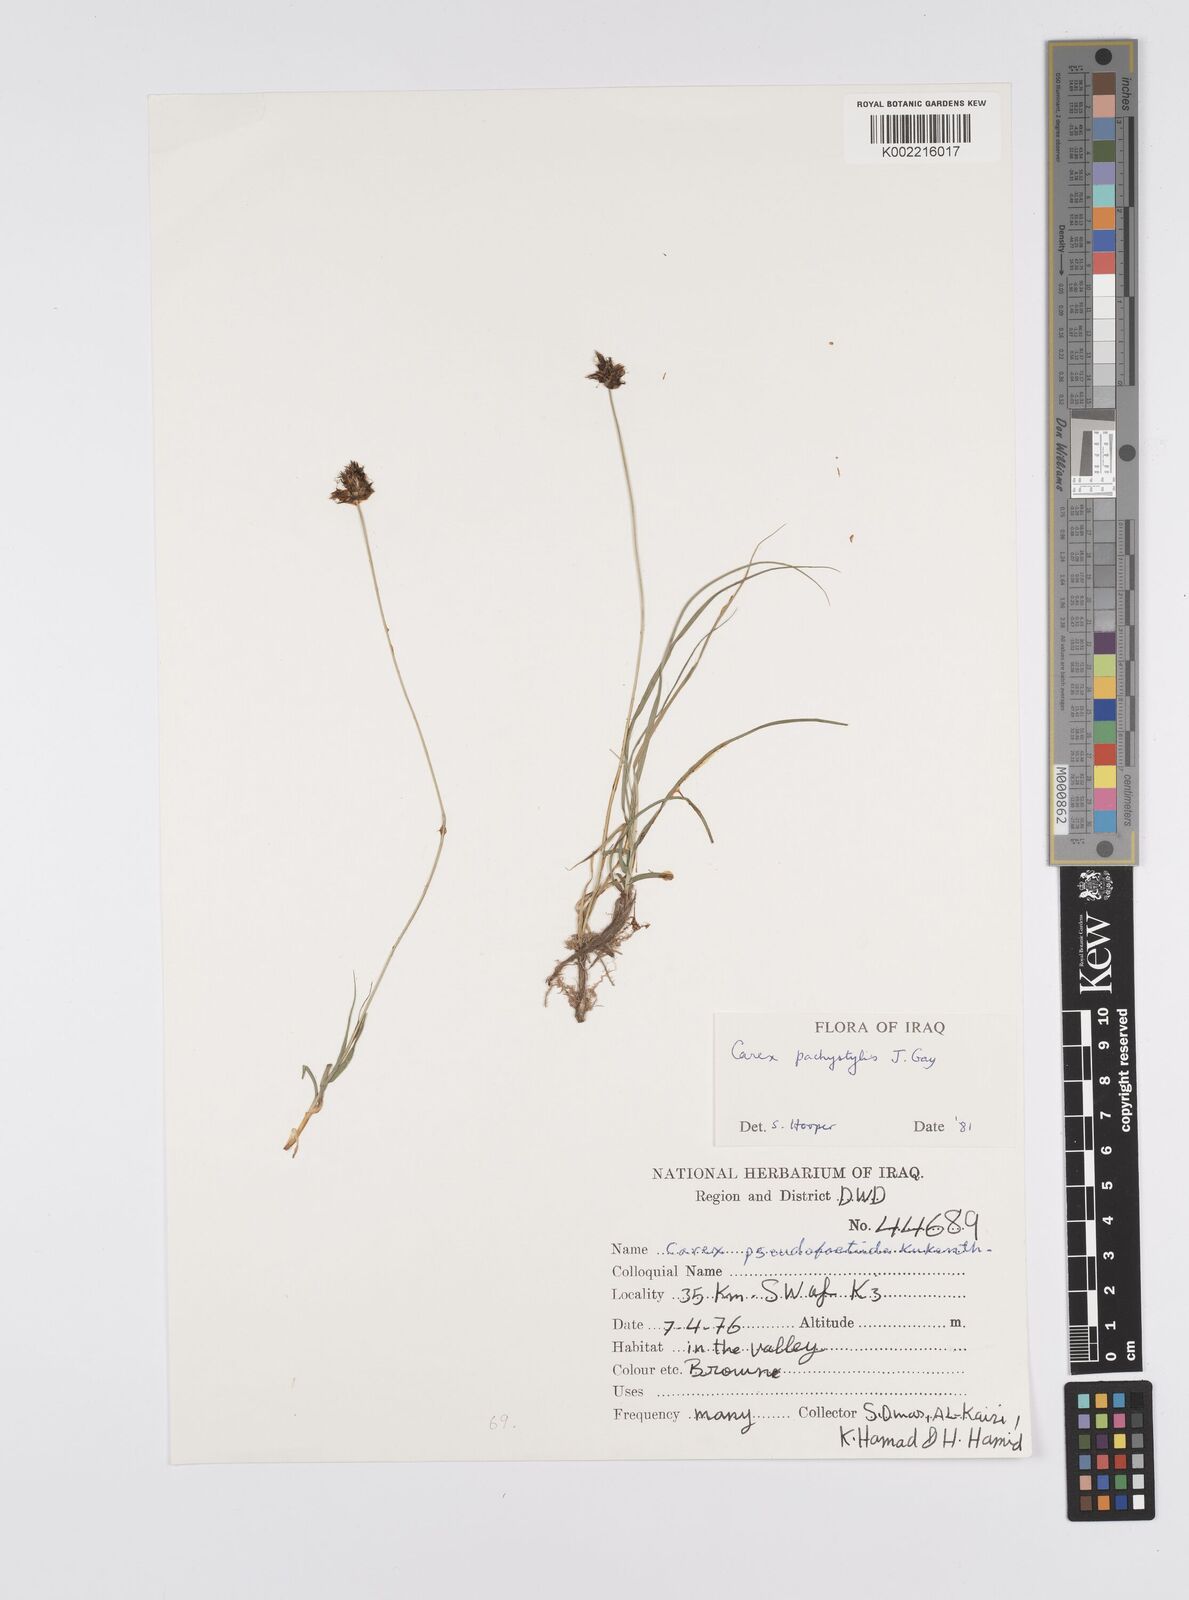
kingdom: Plantae
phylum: Tracheophyta
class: Liliopsida
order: Poales
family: Cyperaceae
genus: Carex
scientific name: Carex pachystylis
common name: Thick-stem sedge
